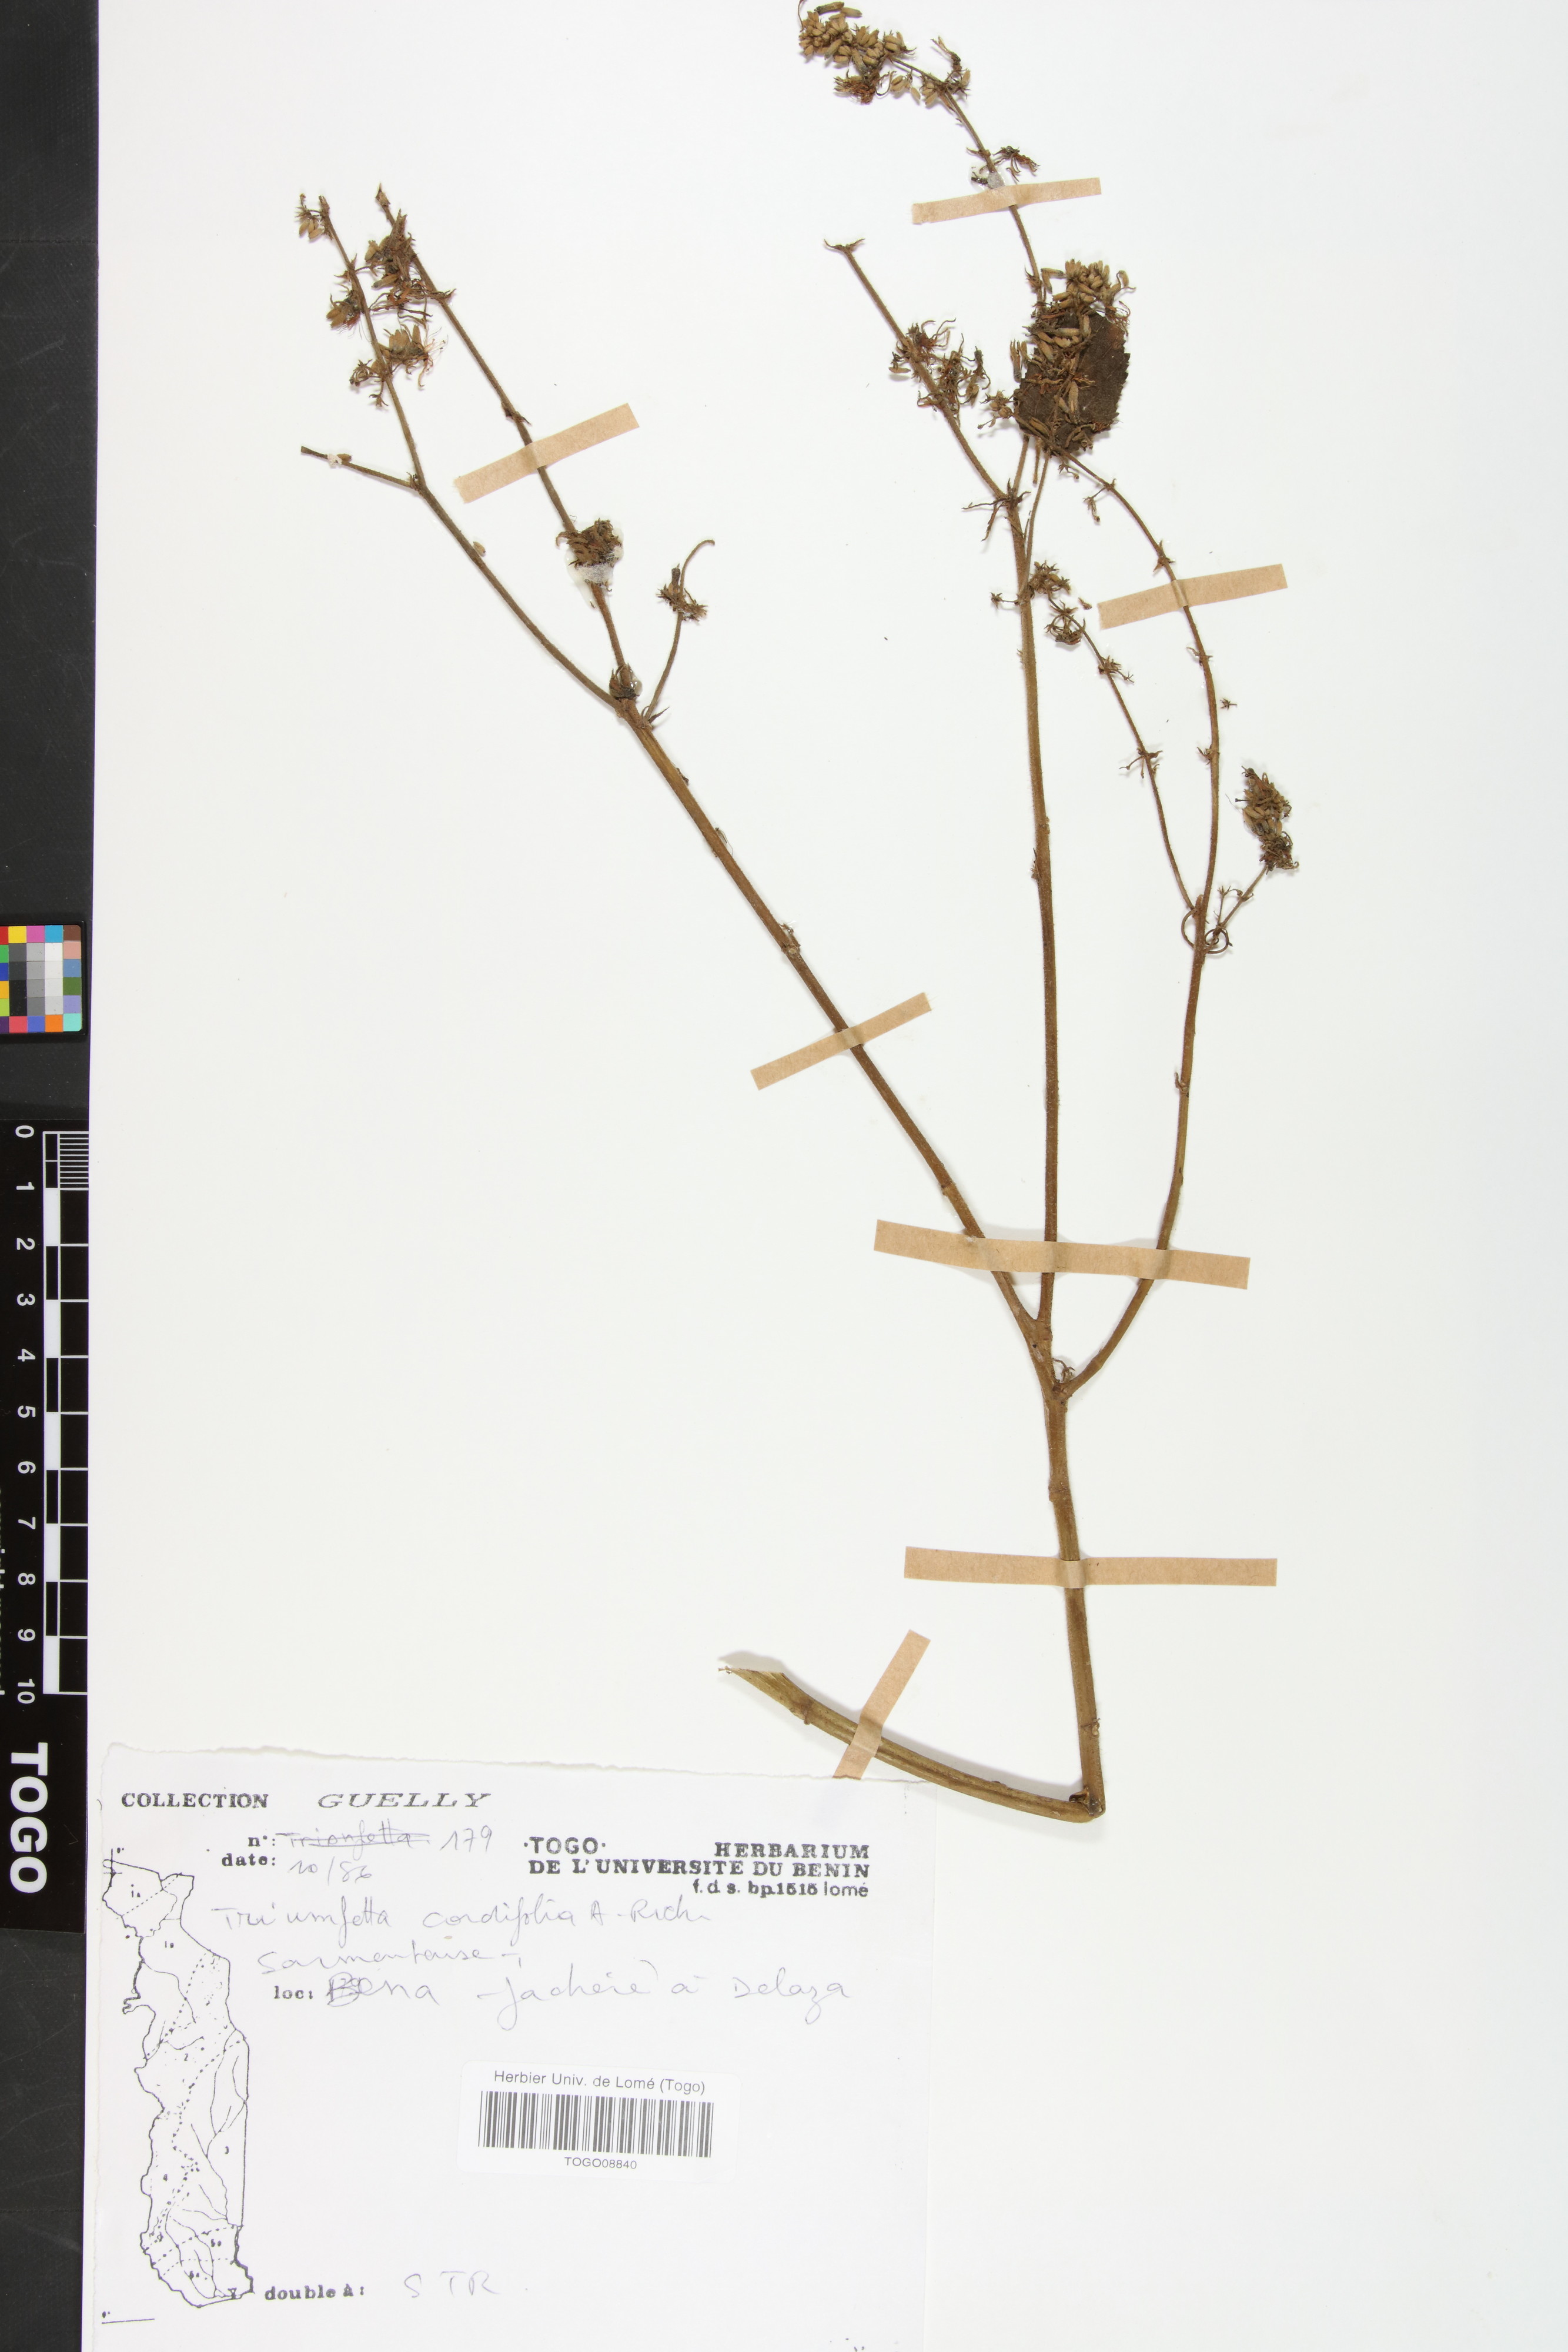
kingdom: Plantae
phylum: Tracheophyta
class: Magnoliopsida
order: Malvales
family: Malvaceae
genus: Triumfetta
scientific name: Triumfetta cordifolia
